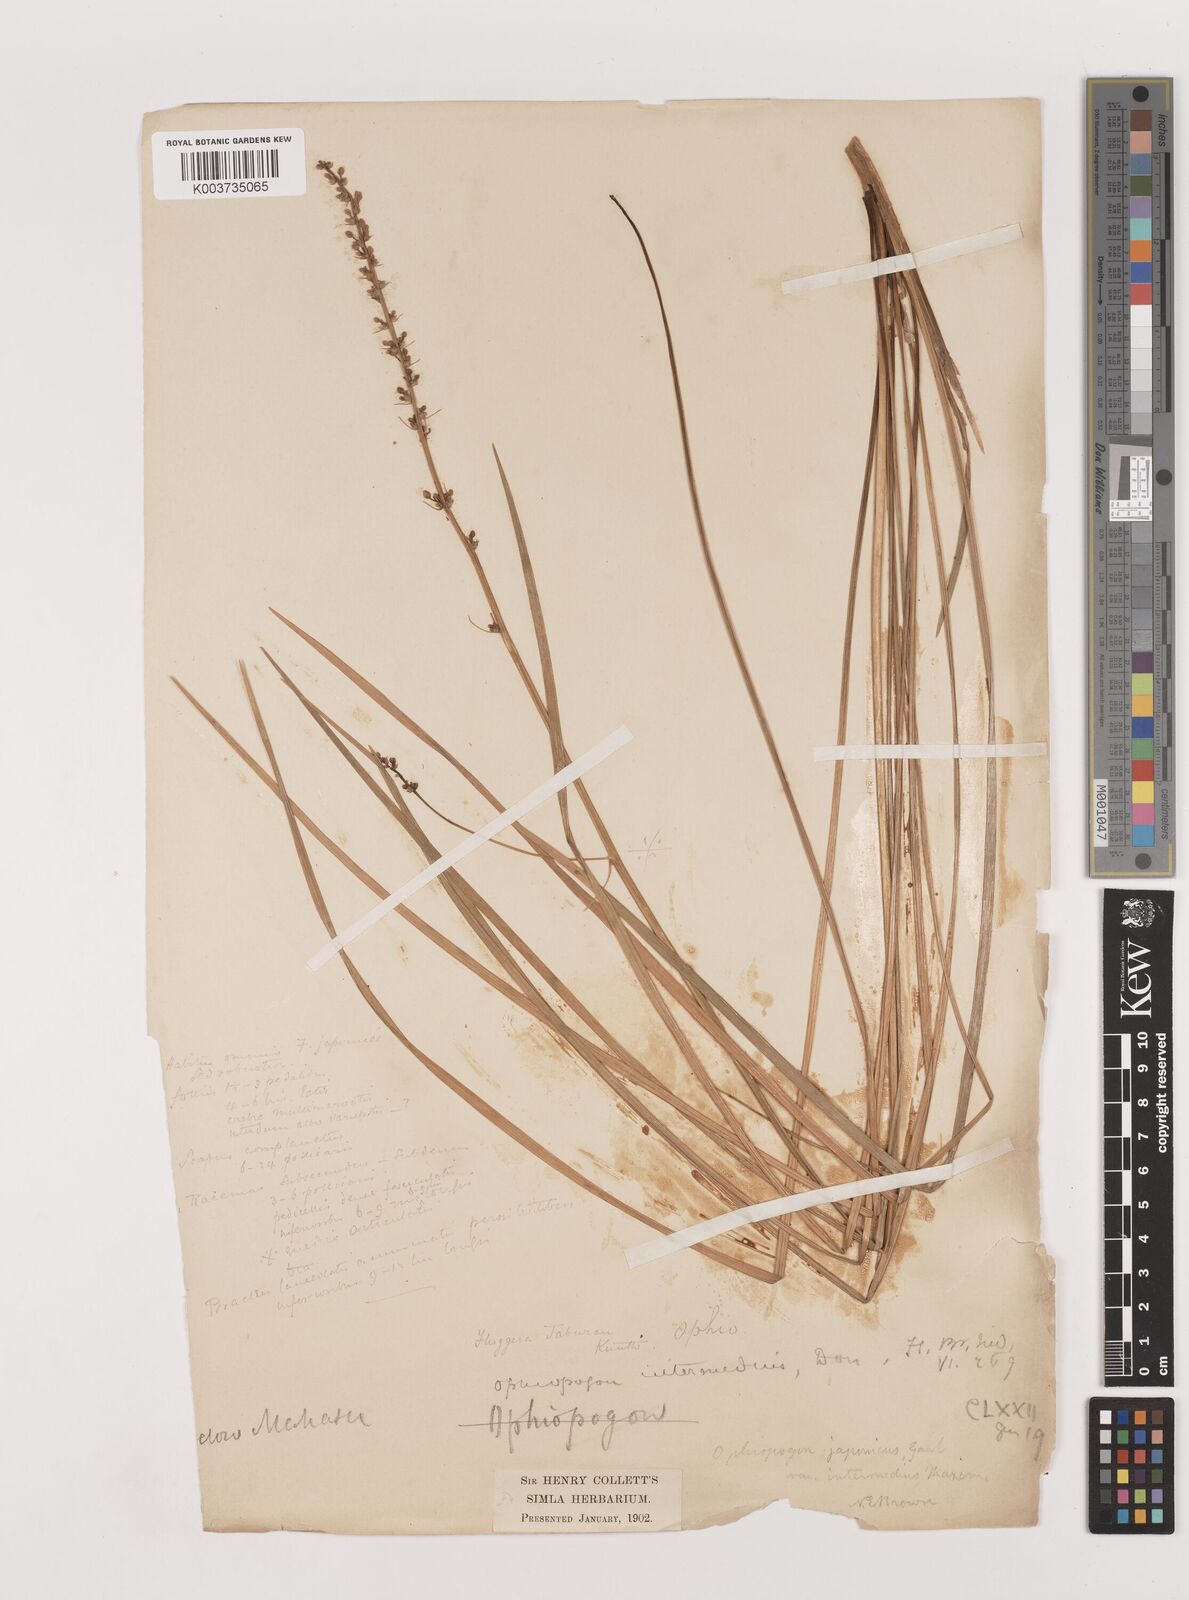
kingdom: Plantae
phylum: Tracheophyta
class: Liliopsida
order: Asparagales
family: Asparagaceae
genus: Ophiopogon
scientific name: Ophiopogon intermedius
